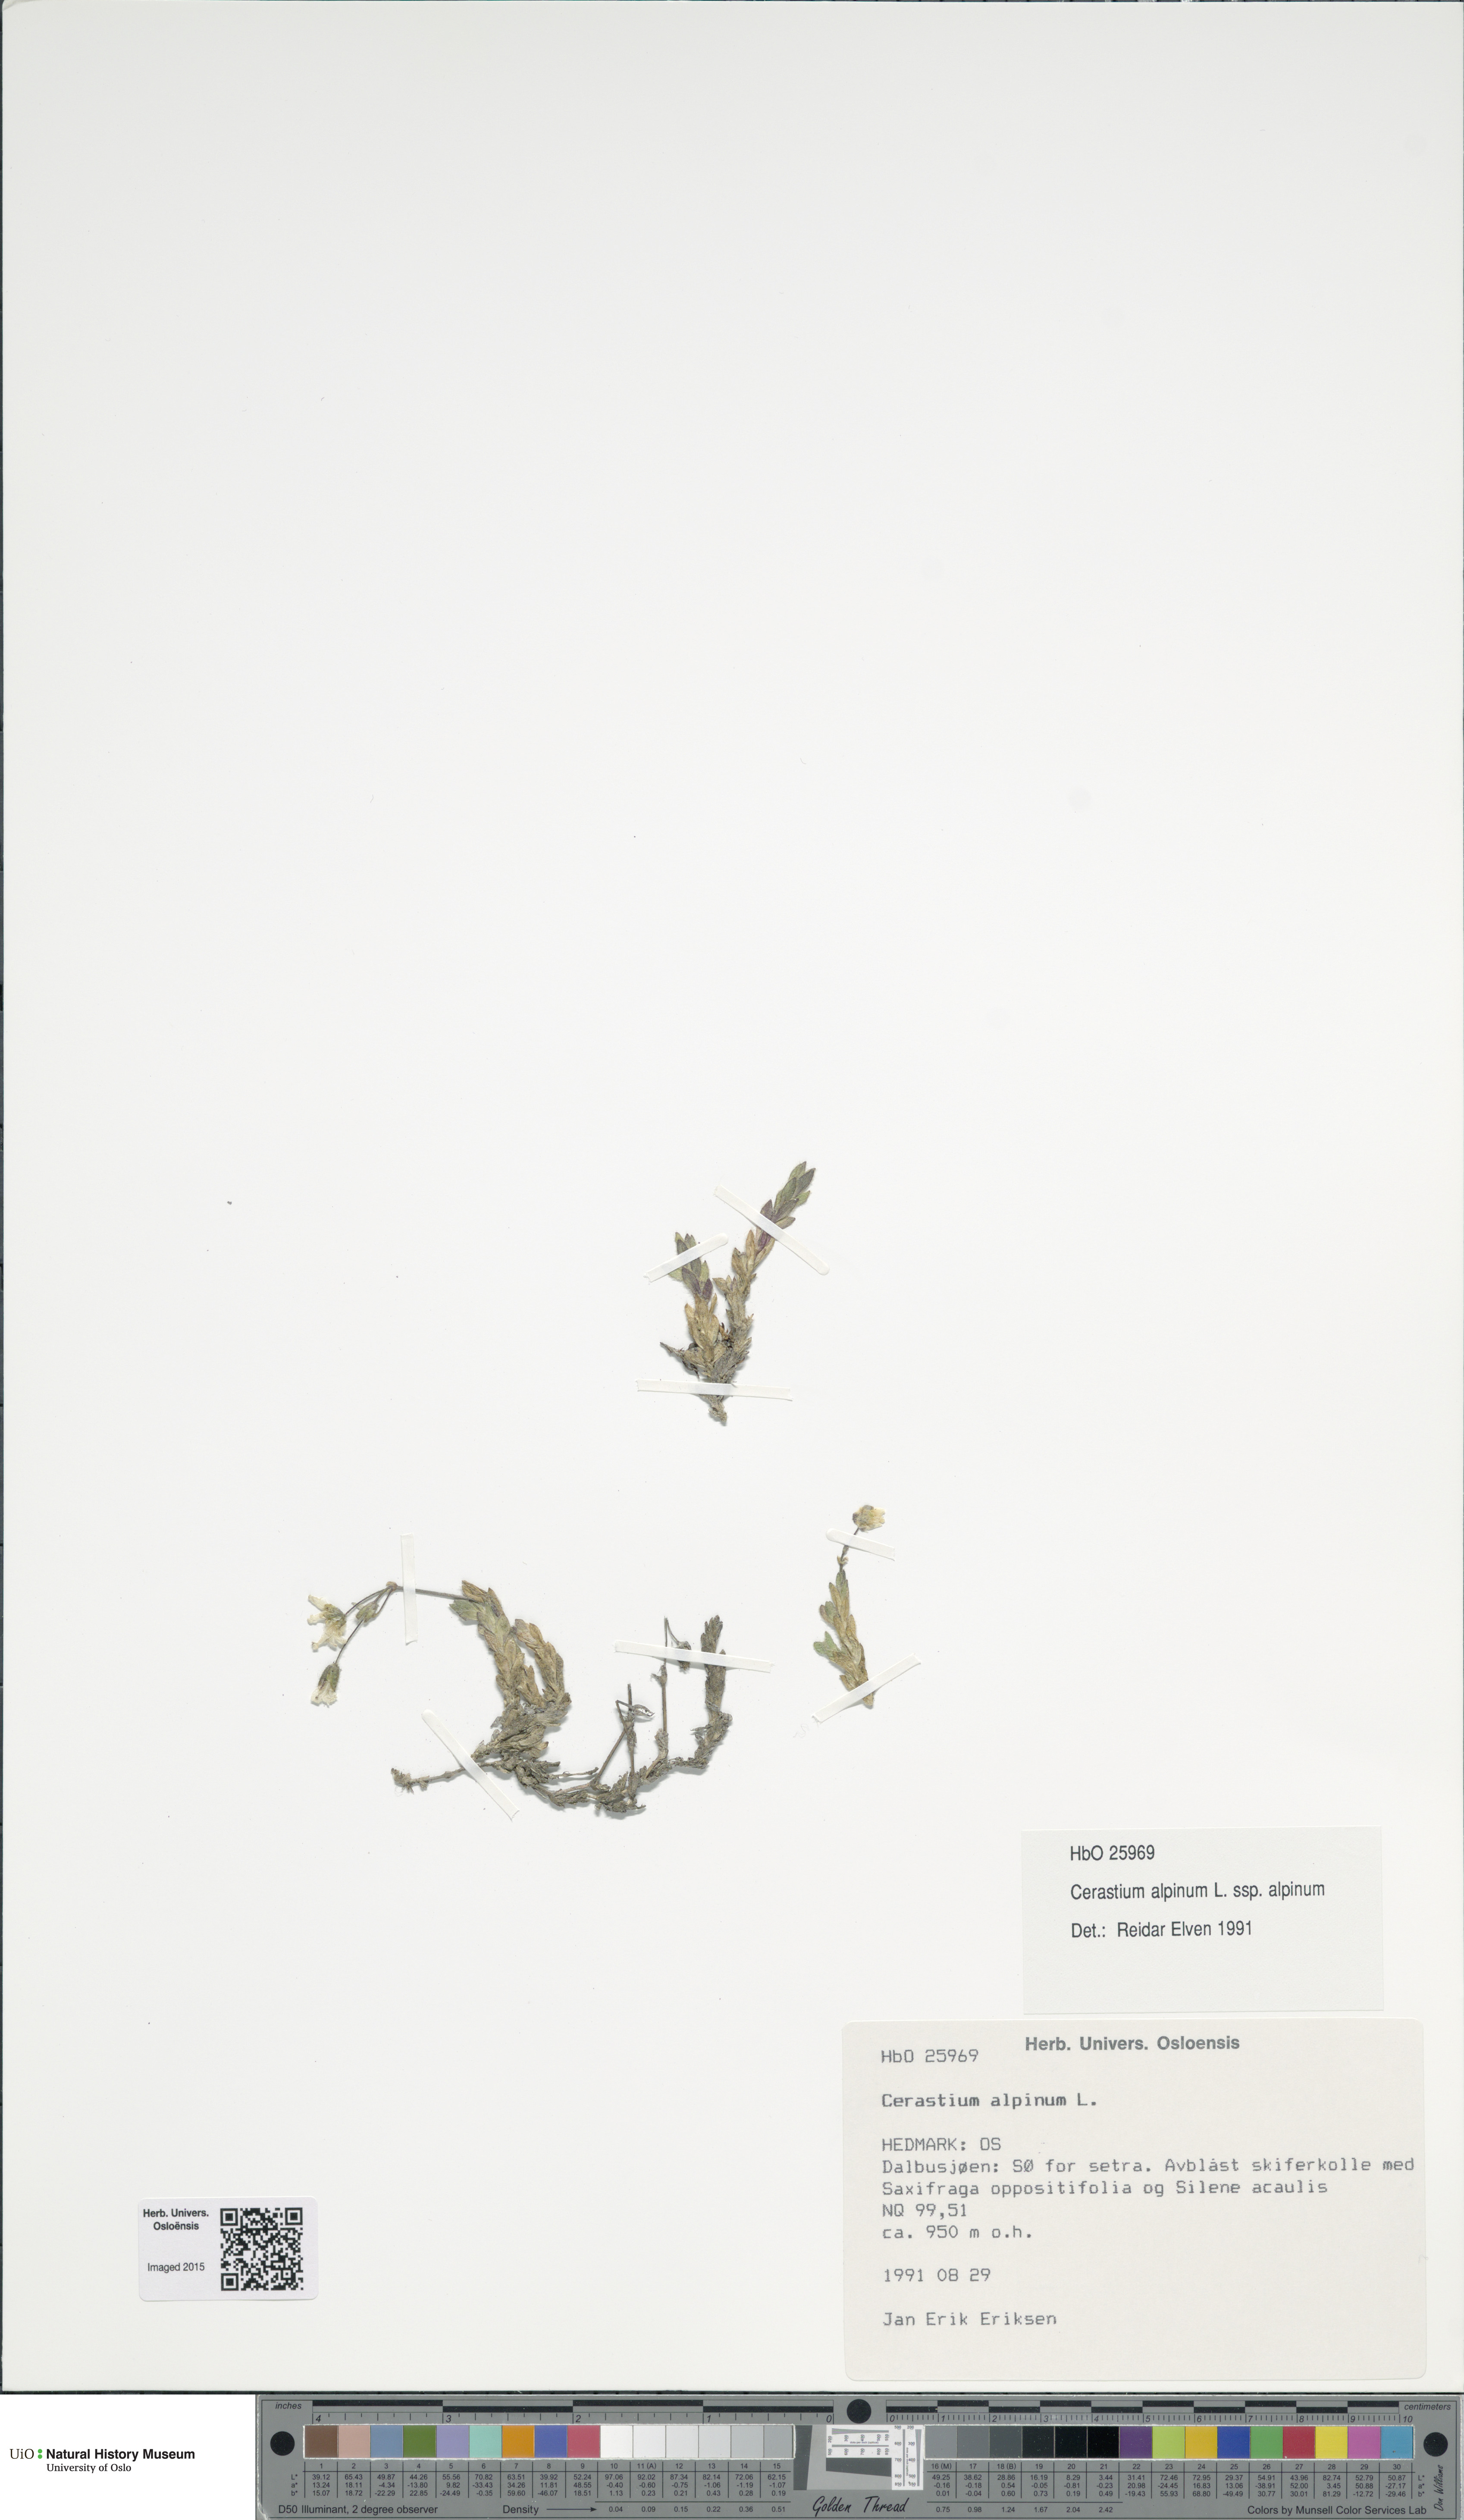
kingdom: Plantae
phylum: Tracheophyta
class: Magnoliopsida
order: Caryophyllales
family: Caryophyllaceae
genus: Cerastium
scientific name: Cerastium alpinum
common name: Alpine mouse-ear
